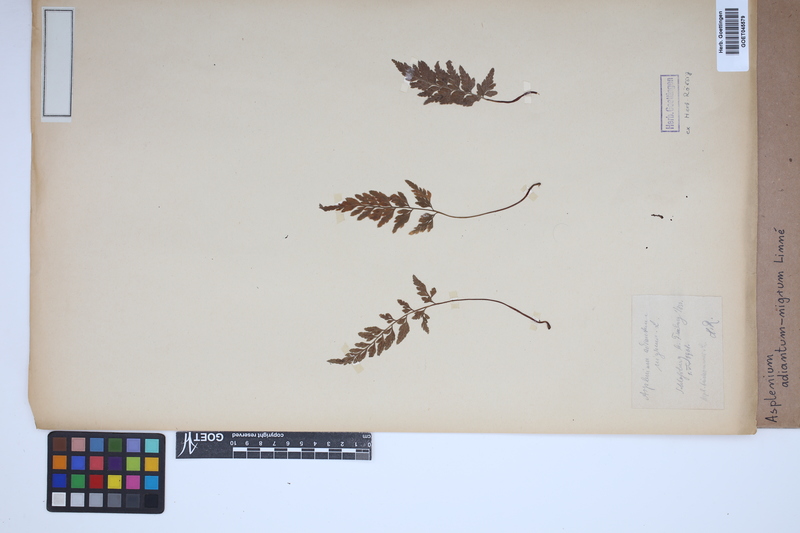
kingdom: Plantae
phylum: Tracheophyta
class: Polypodiopsida
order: Polypodiales
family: Aspleniaceae
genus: Asplenium
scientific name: Asplenium adiantum-nigrum
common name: Black spleenwort
